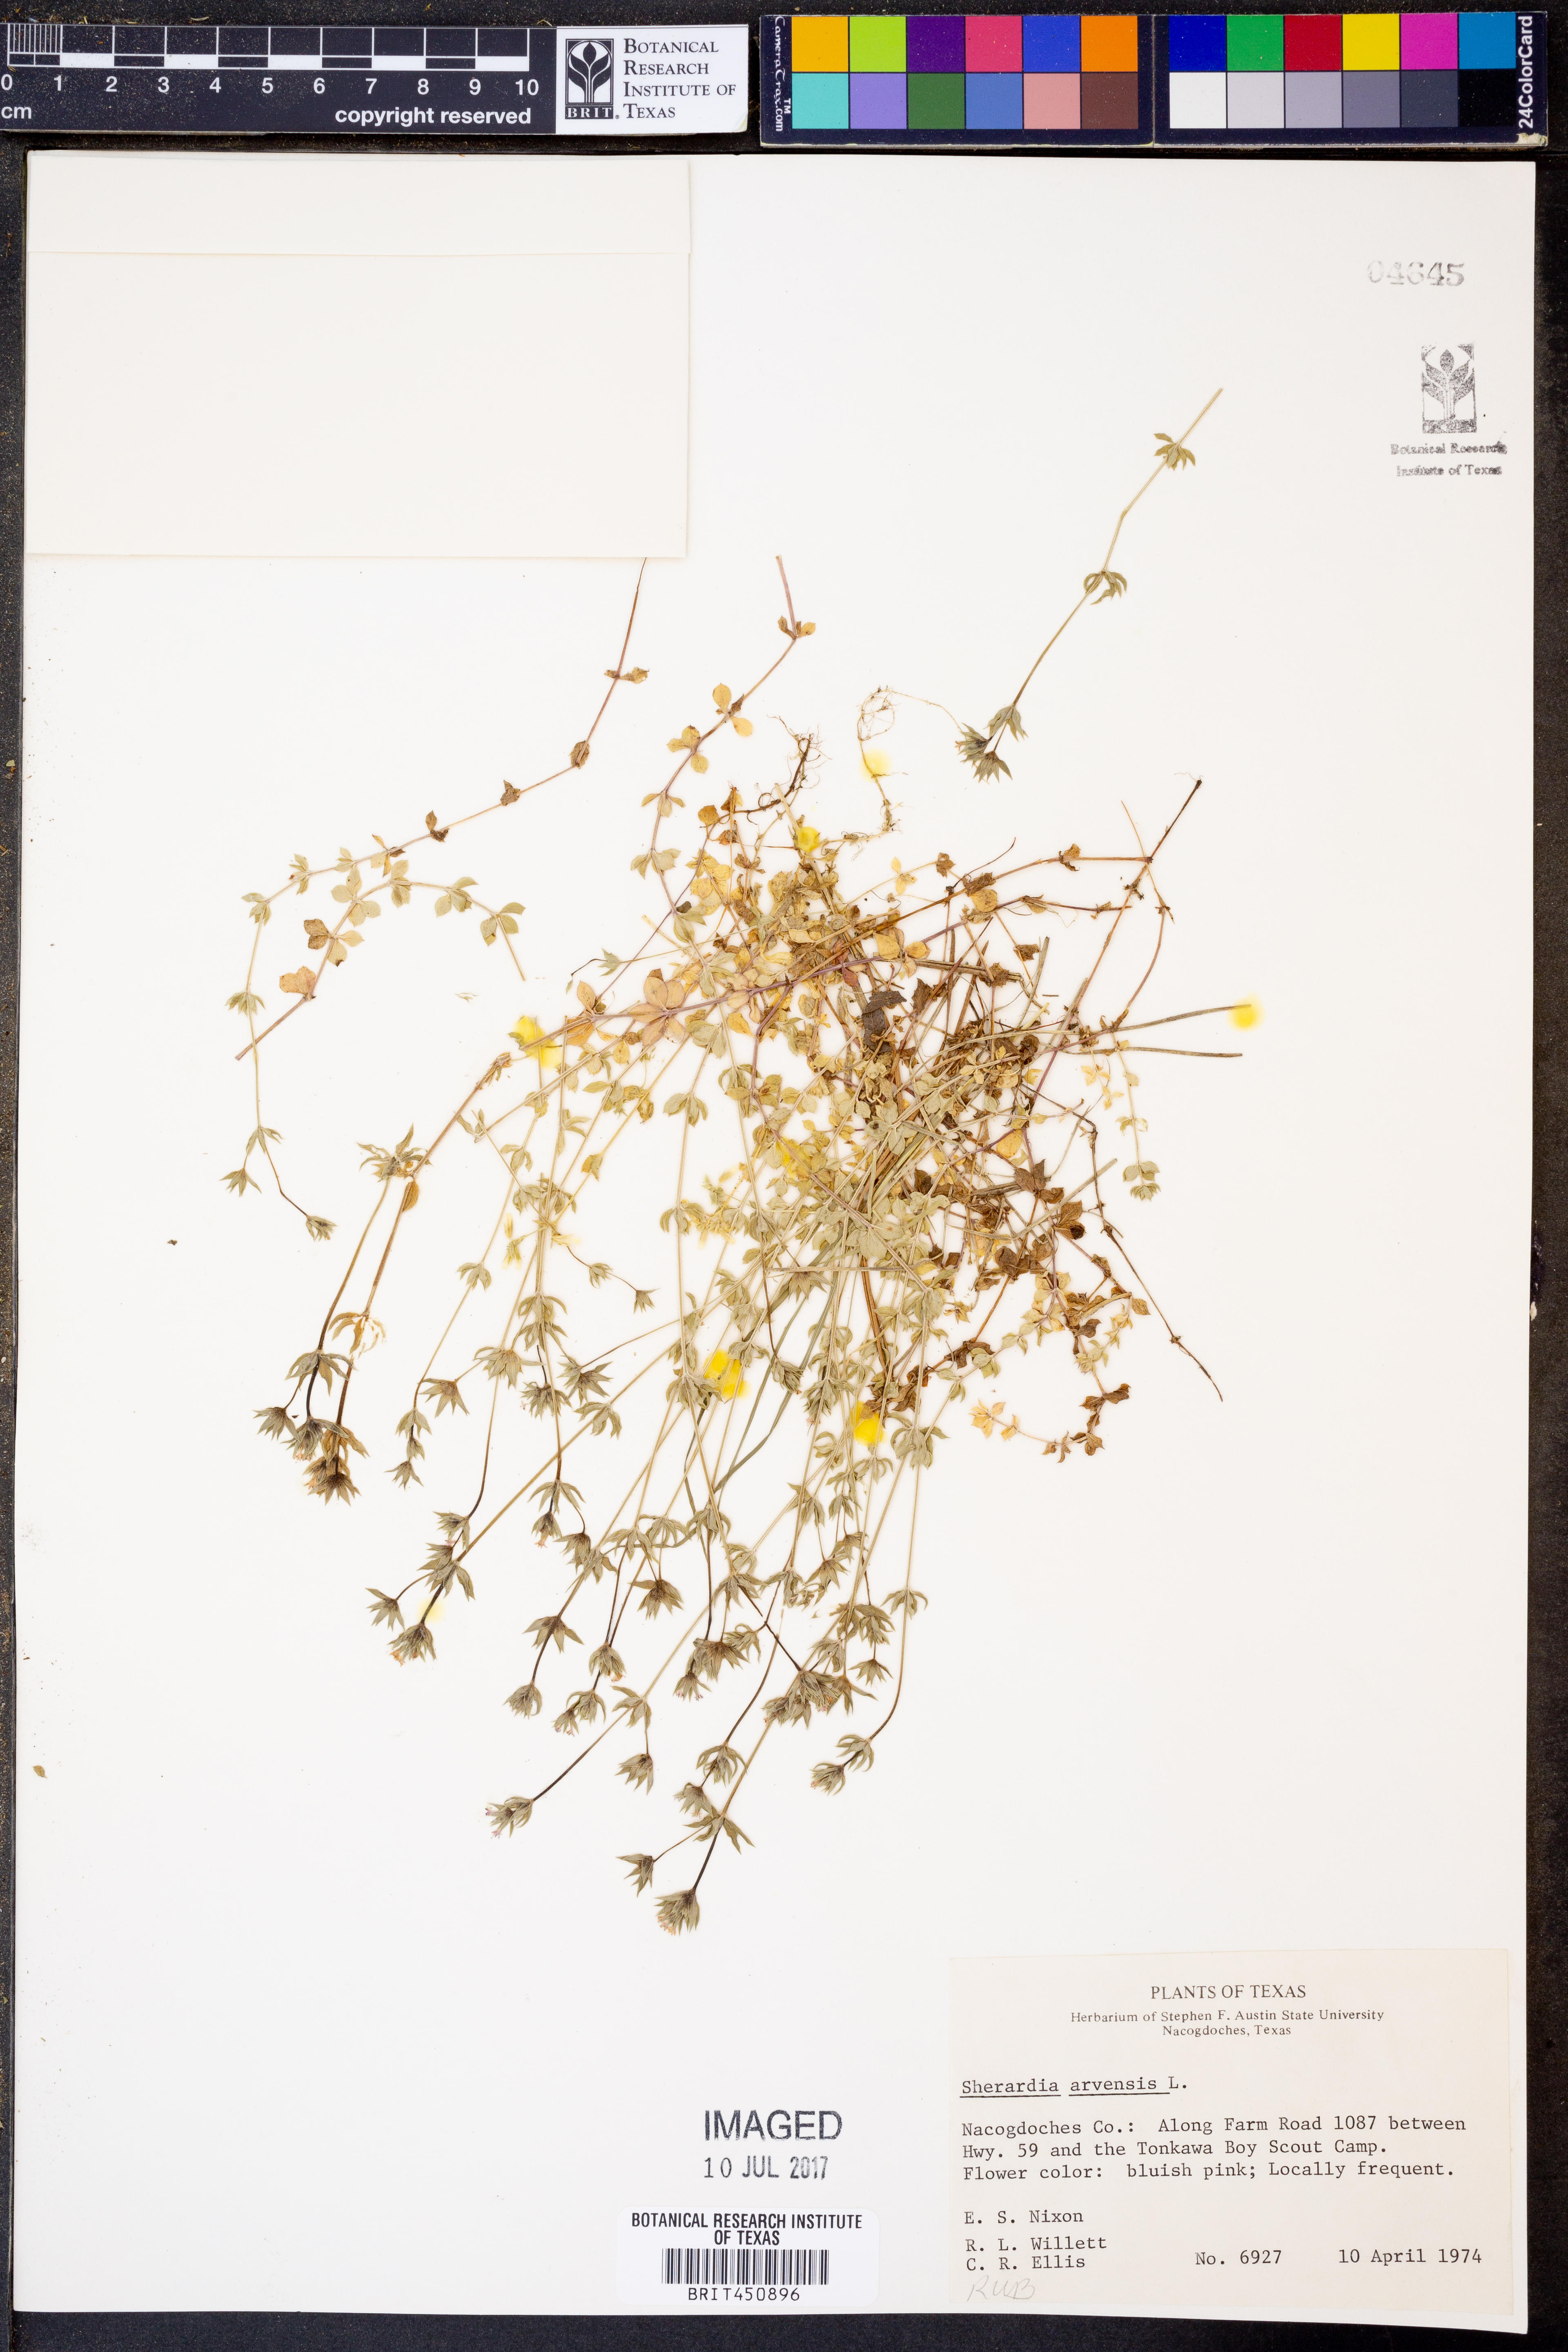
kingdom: Plantae
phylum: Tracheophyta
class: Magnoliopsida
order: Gentianales
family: Rubiaceae
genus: Sherardia
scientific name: Sherardia arvensis
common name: Field madder
